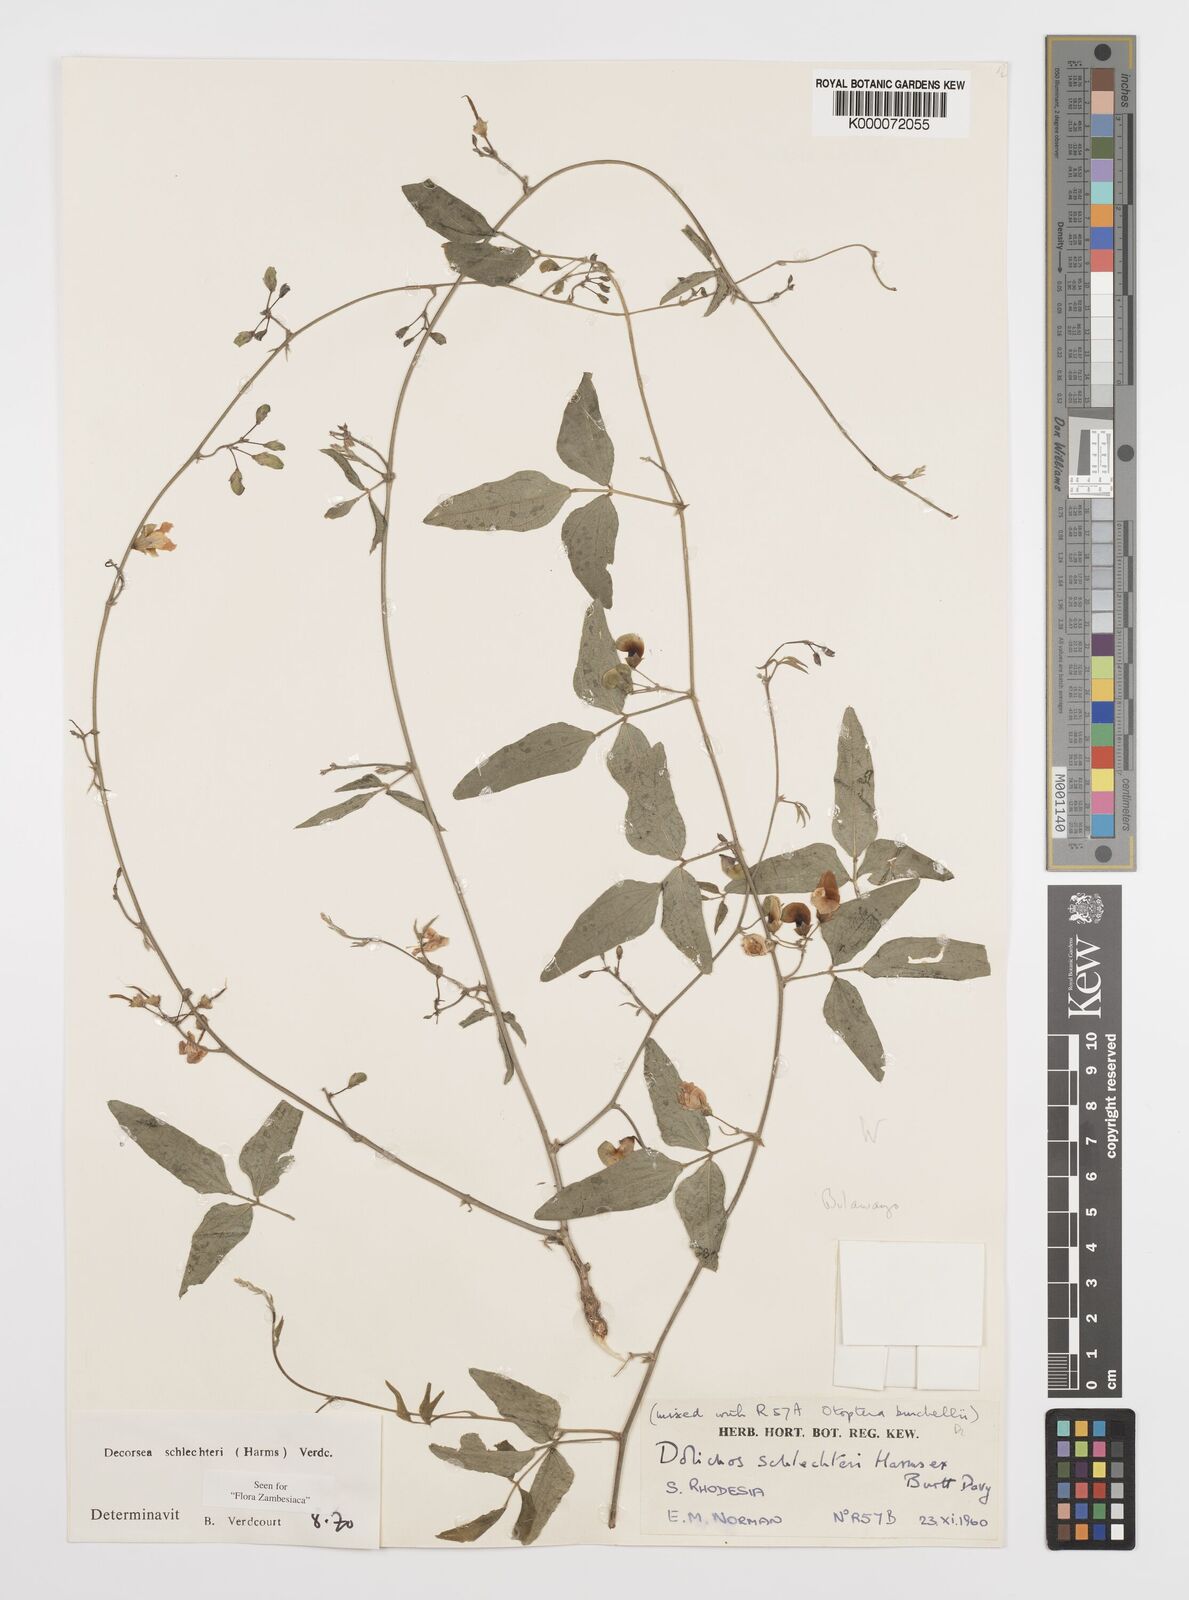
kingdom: Plantae
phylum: Tracheophyta
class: Magnoliopsida
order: Fabales
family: Fabaceae
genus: Decorsea
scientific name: Decorsea schlechteri
